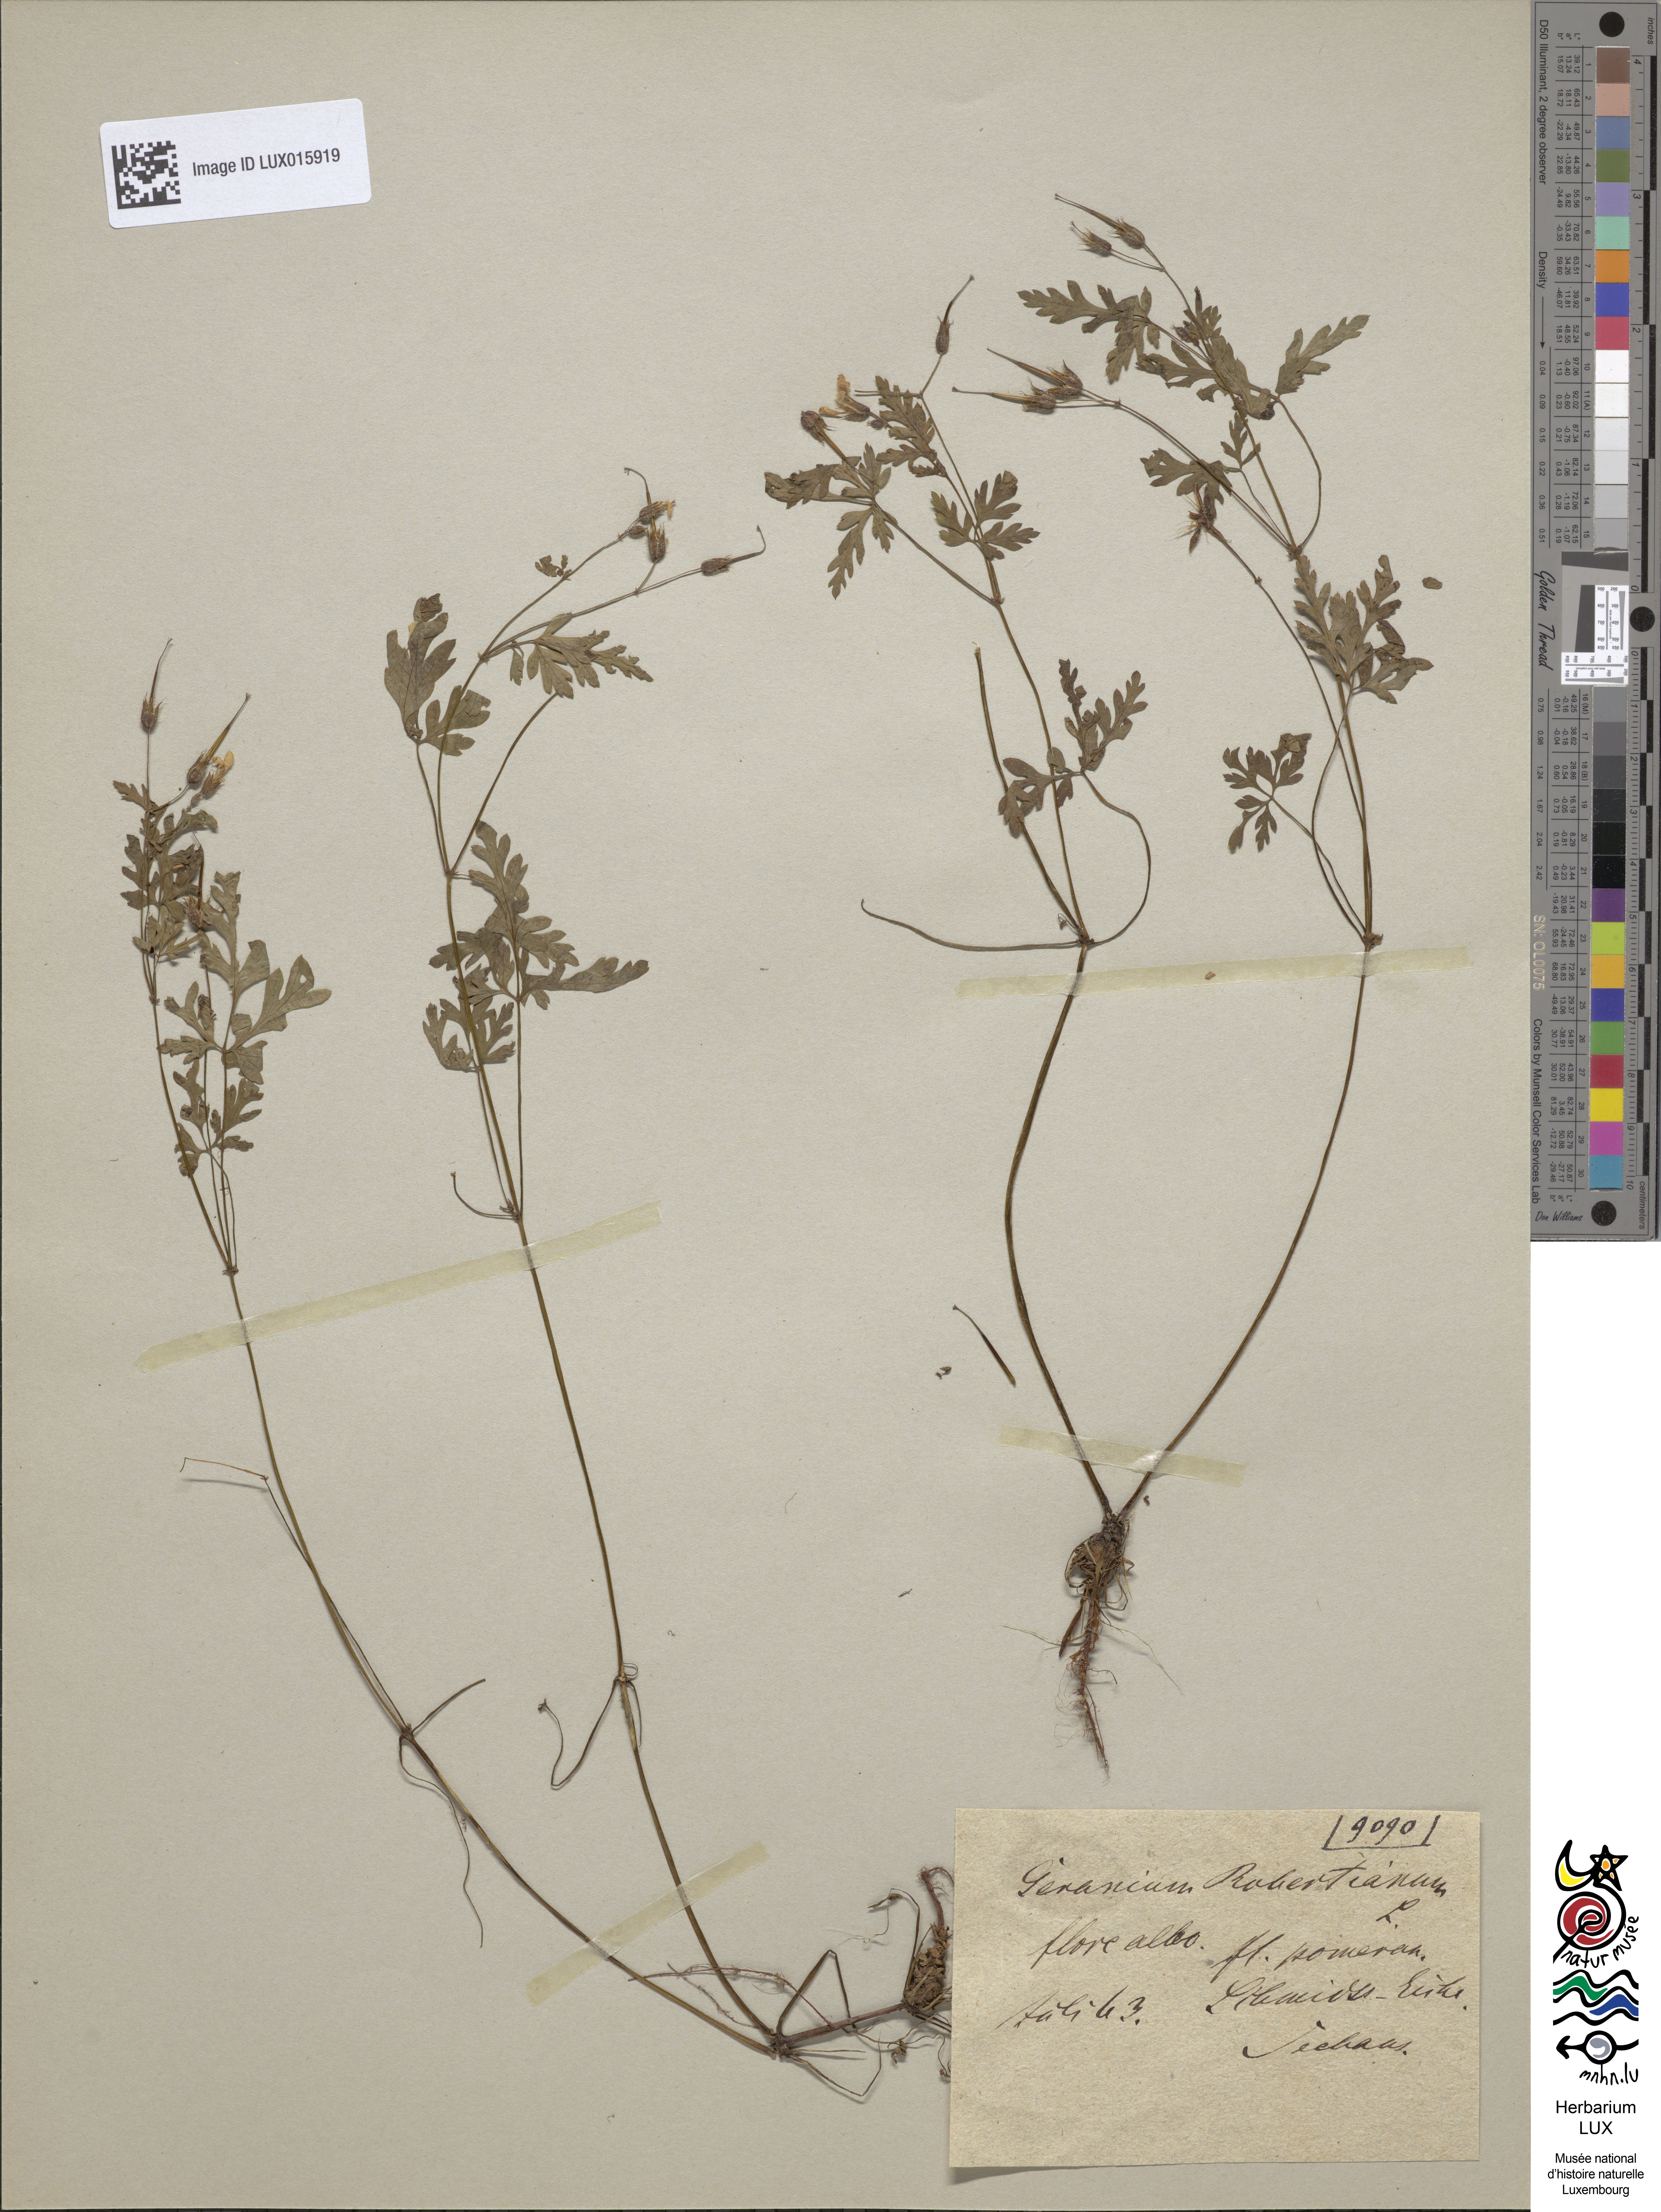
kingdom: Plantae
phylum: Tracheophyta
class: Magnoliopsida
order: Geraniales
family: Geraniaceae
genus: Geranium
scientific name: Geranium robertianum
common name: Herb-robert
